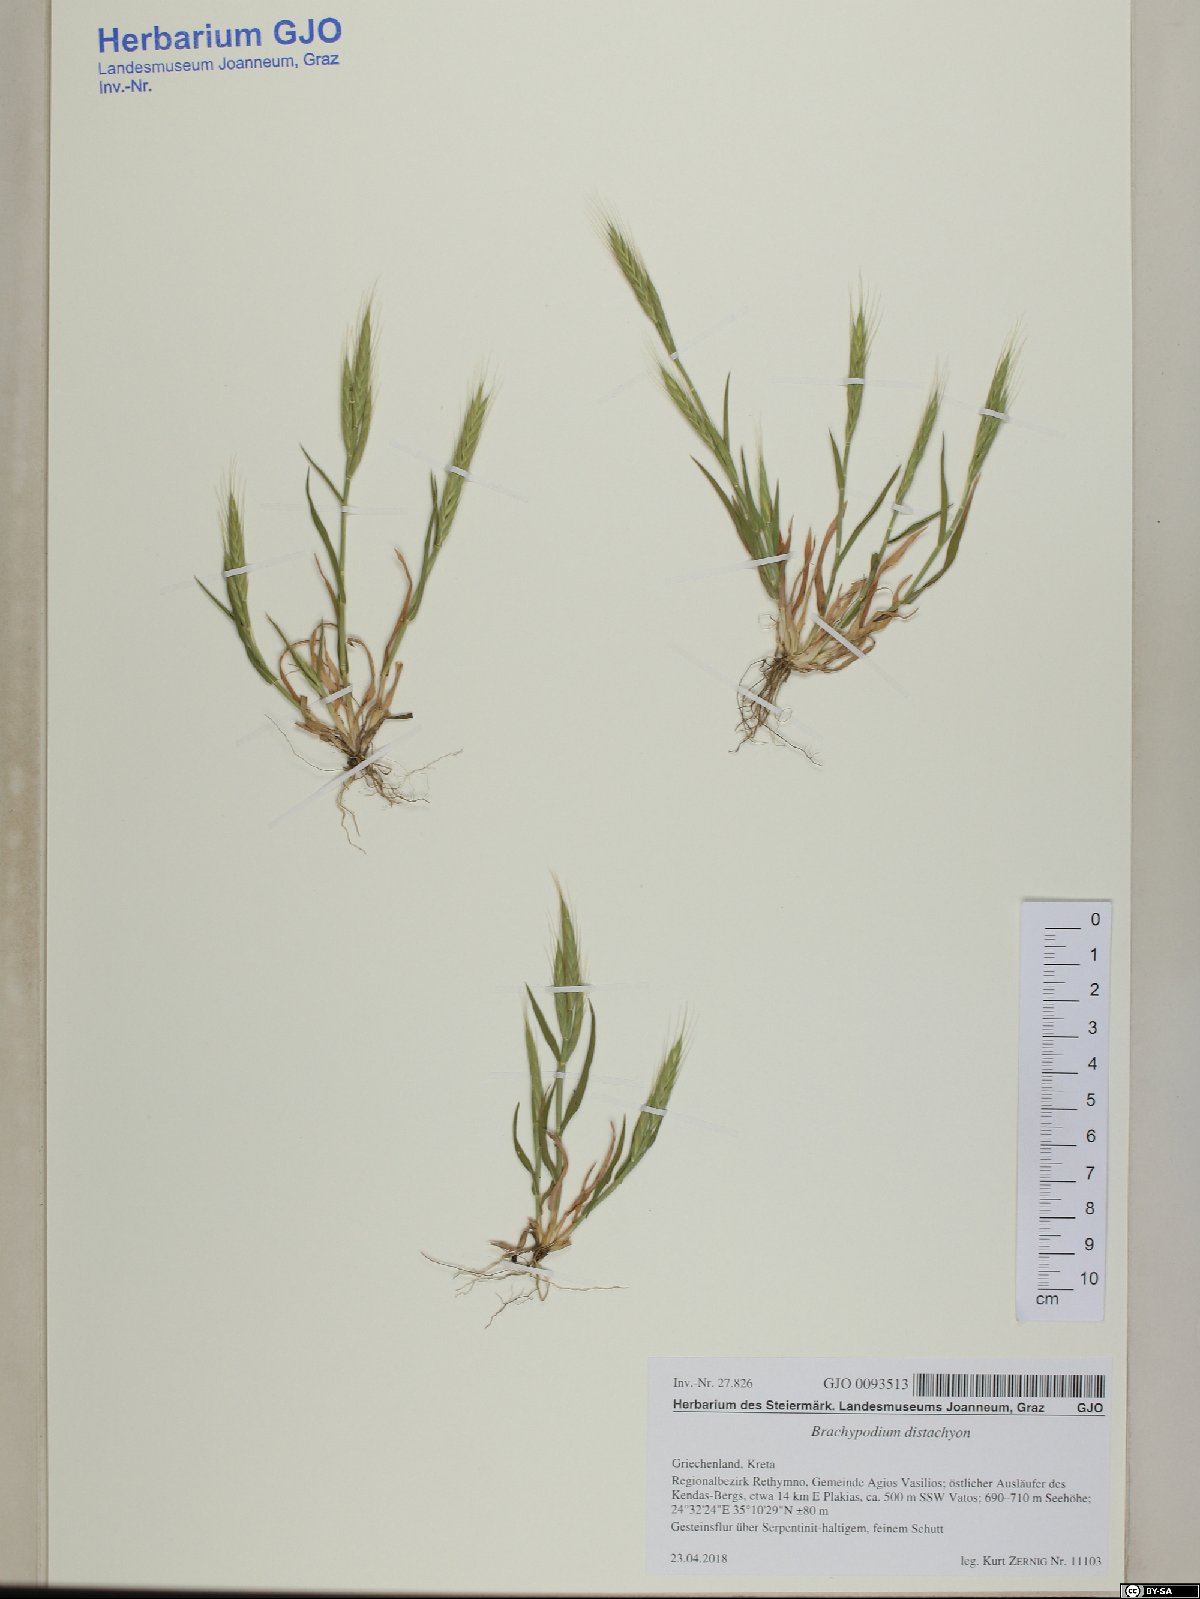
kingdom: Plantae
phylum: Tracheophyta
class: Liliopsida
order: Poales
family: Poaceae
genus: Brachypodium
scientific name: Brachypodium distachyon
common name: Stiff brome
